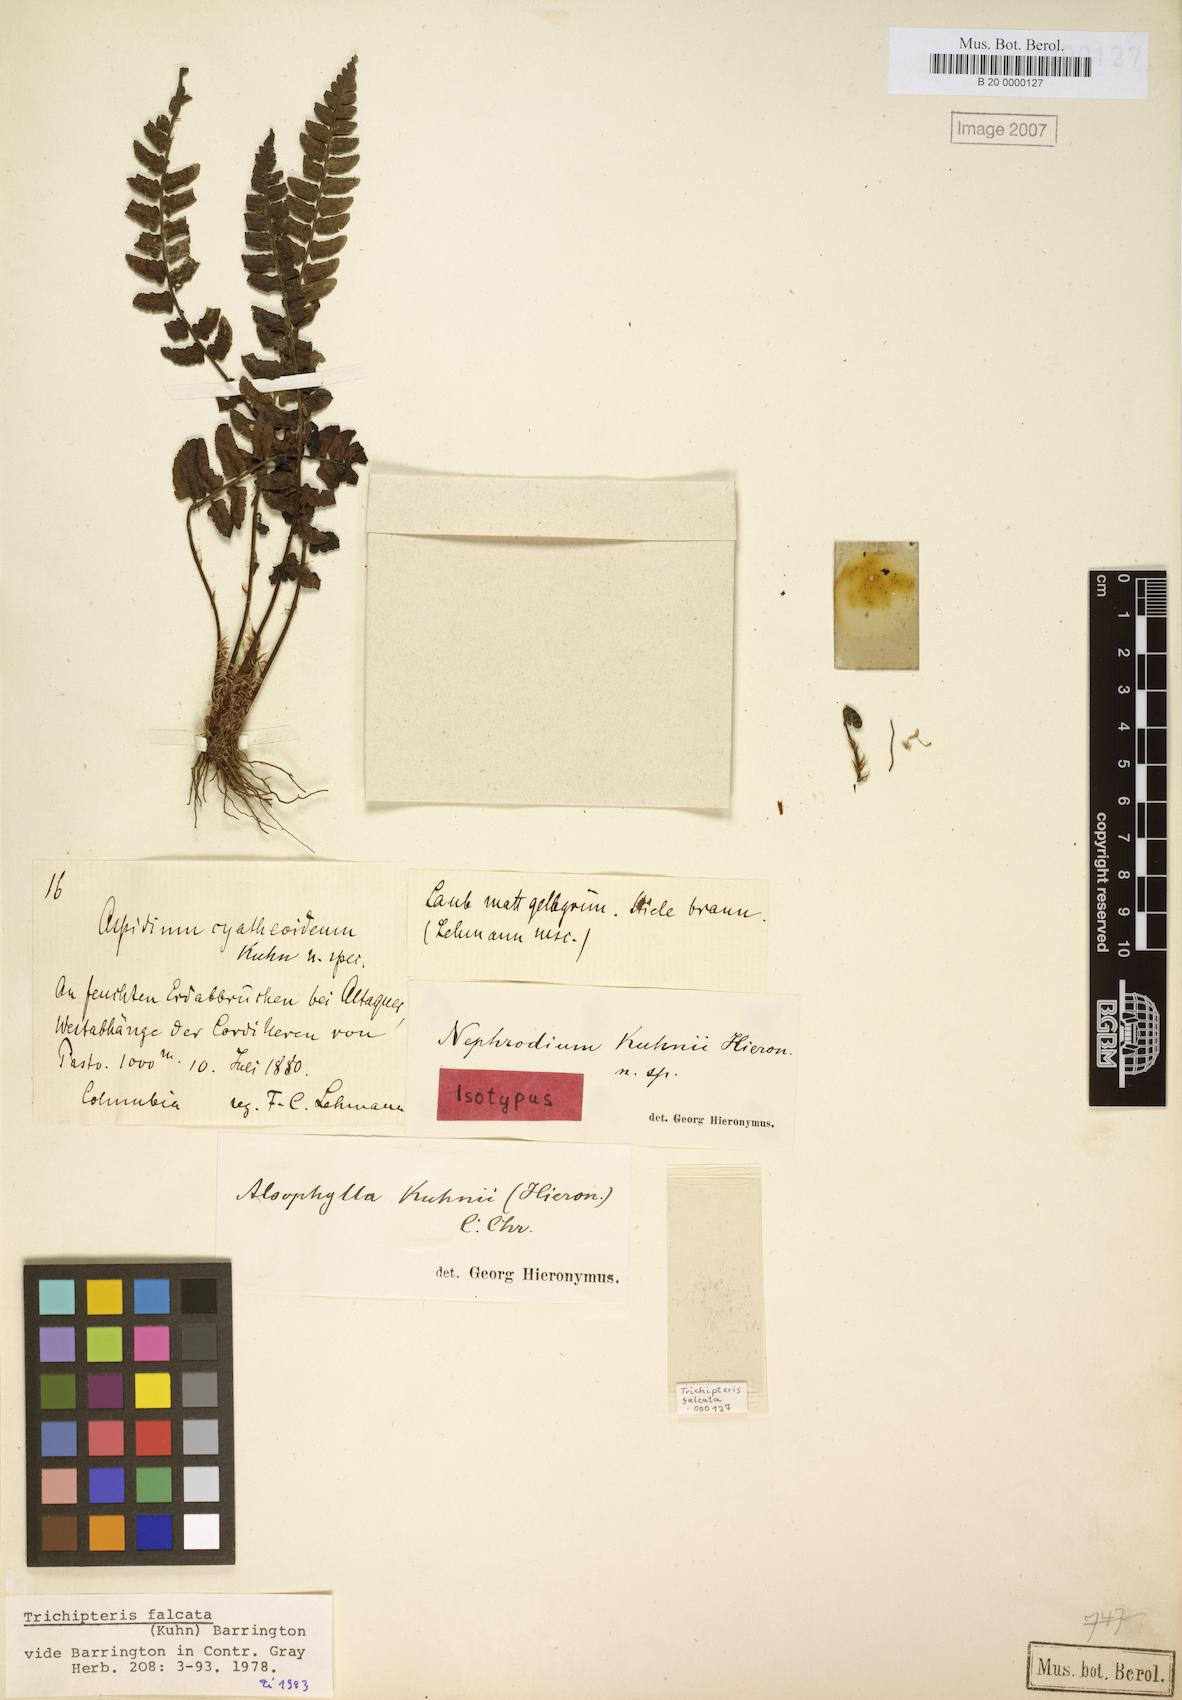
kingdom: Plantae
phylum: Tracheophyta
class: Polypodiopsida
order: Cyatheales
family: Cyatheaceae
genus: Cyathea
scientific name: Cyathea falcata
